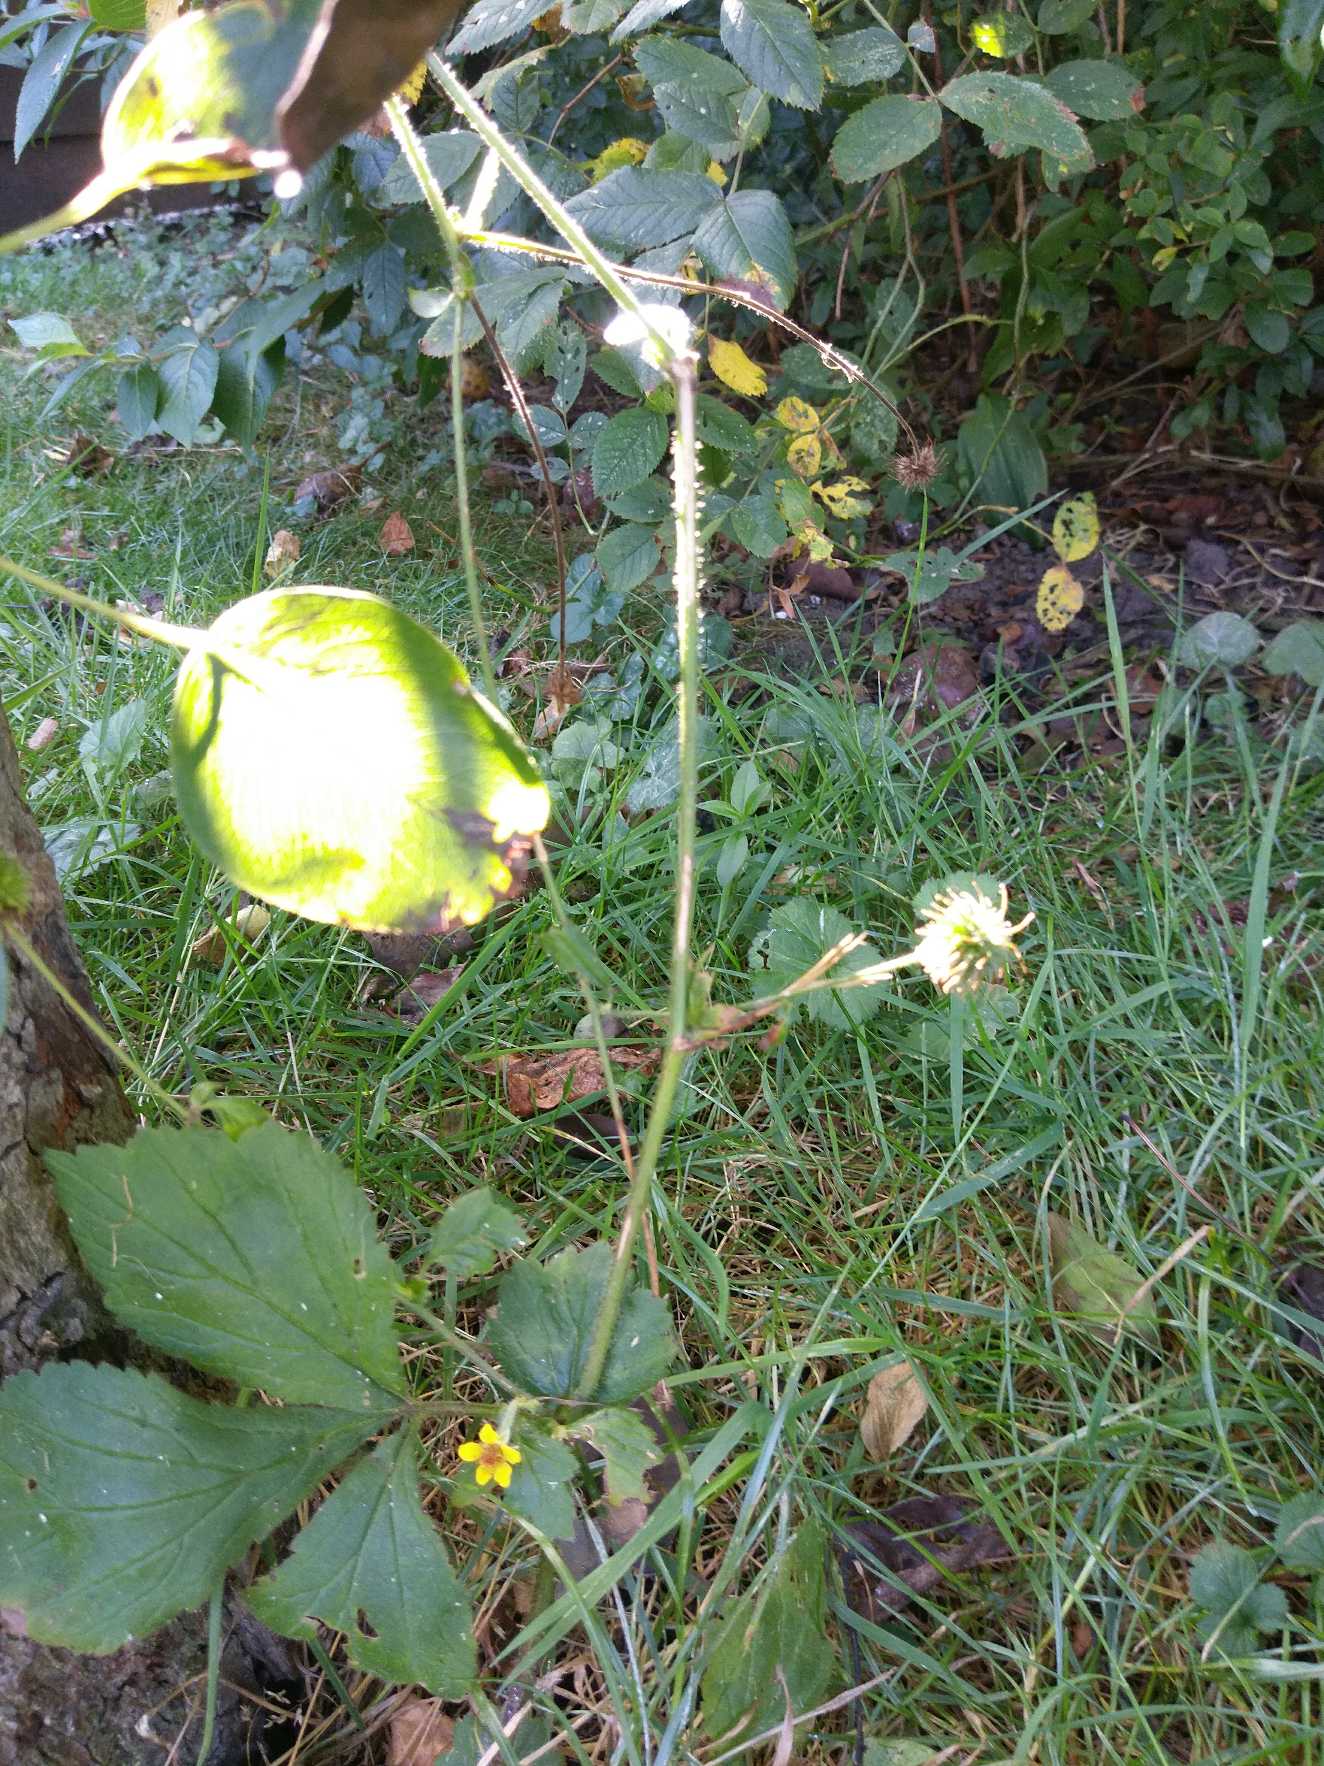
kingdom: Plantae
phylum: Tracheophyta
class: Magnoliopsida
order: Rosales
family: Rosaceae
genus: Geum
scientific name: Geum urbanum
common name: Feber-nellikerod
